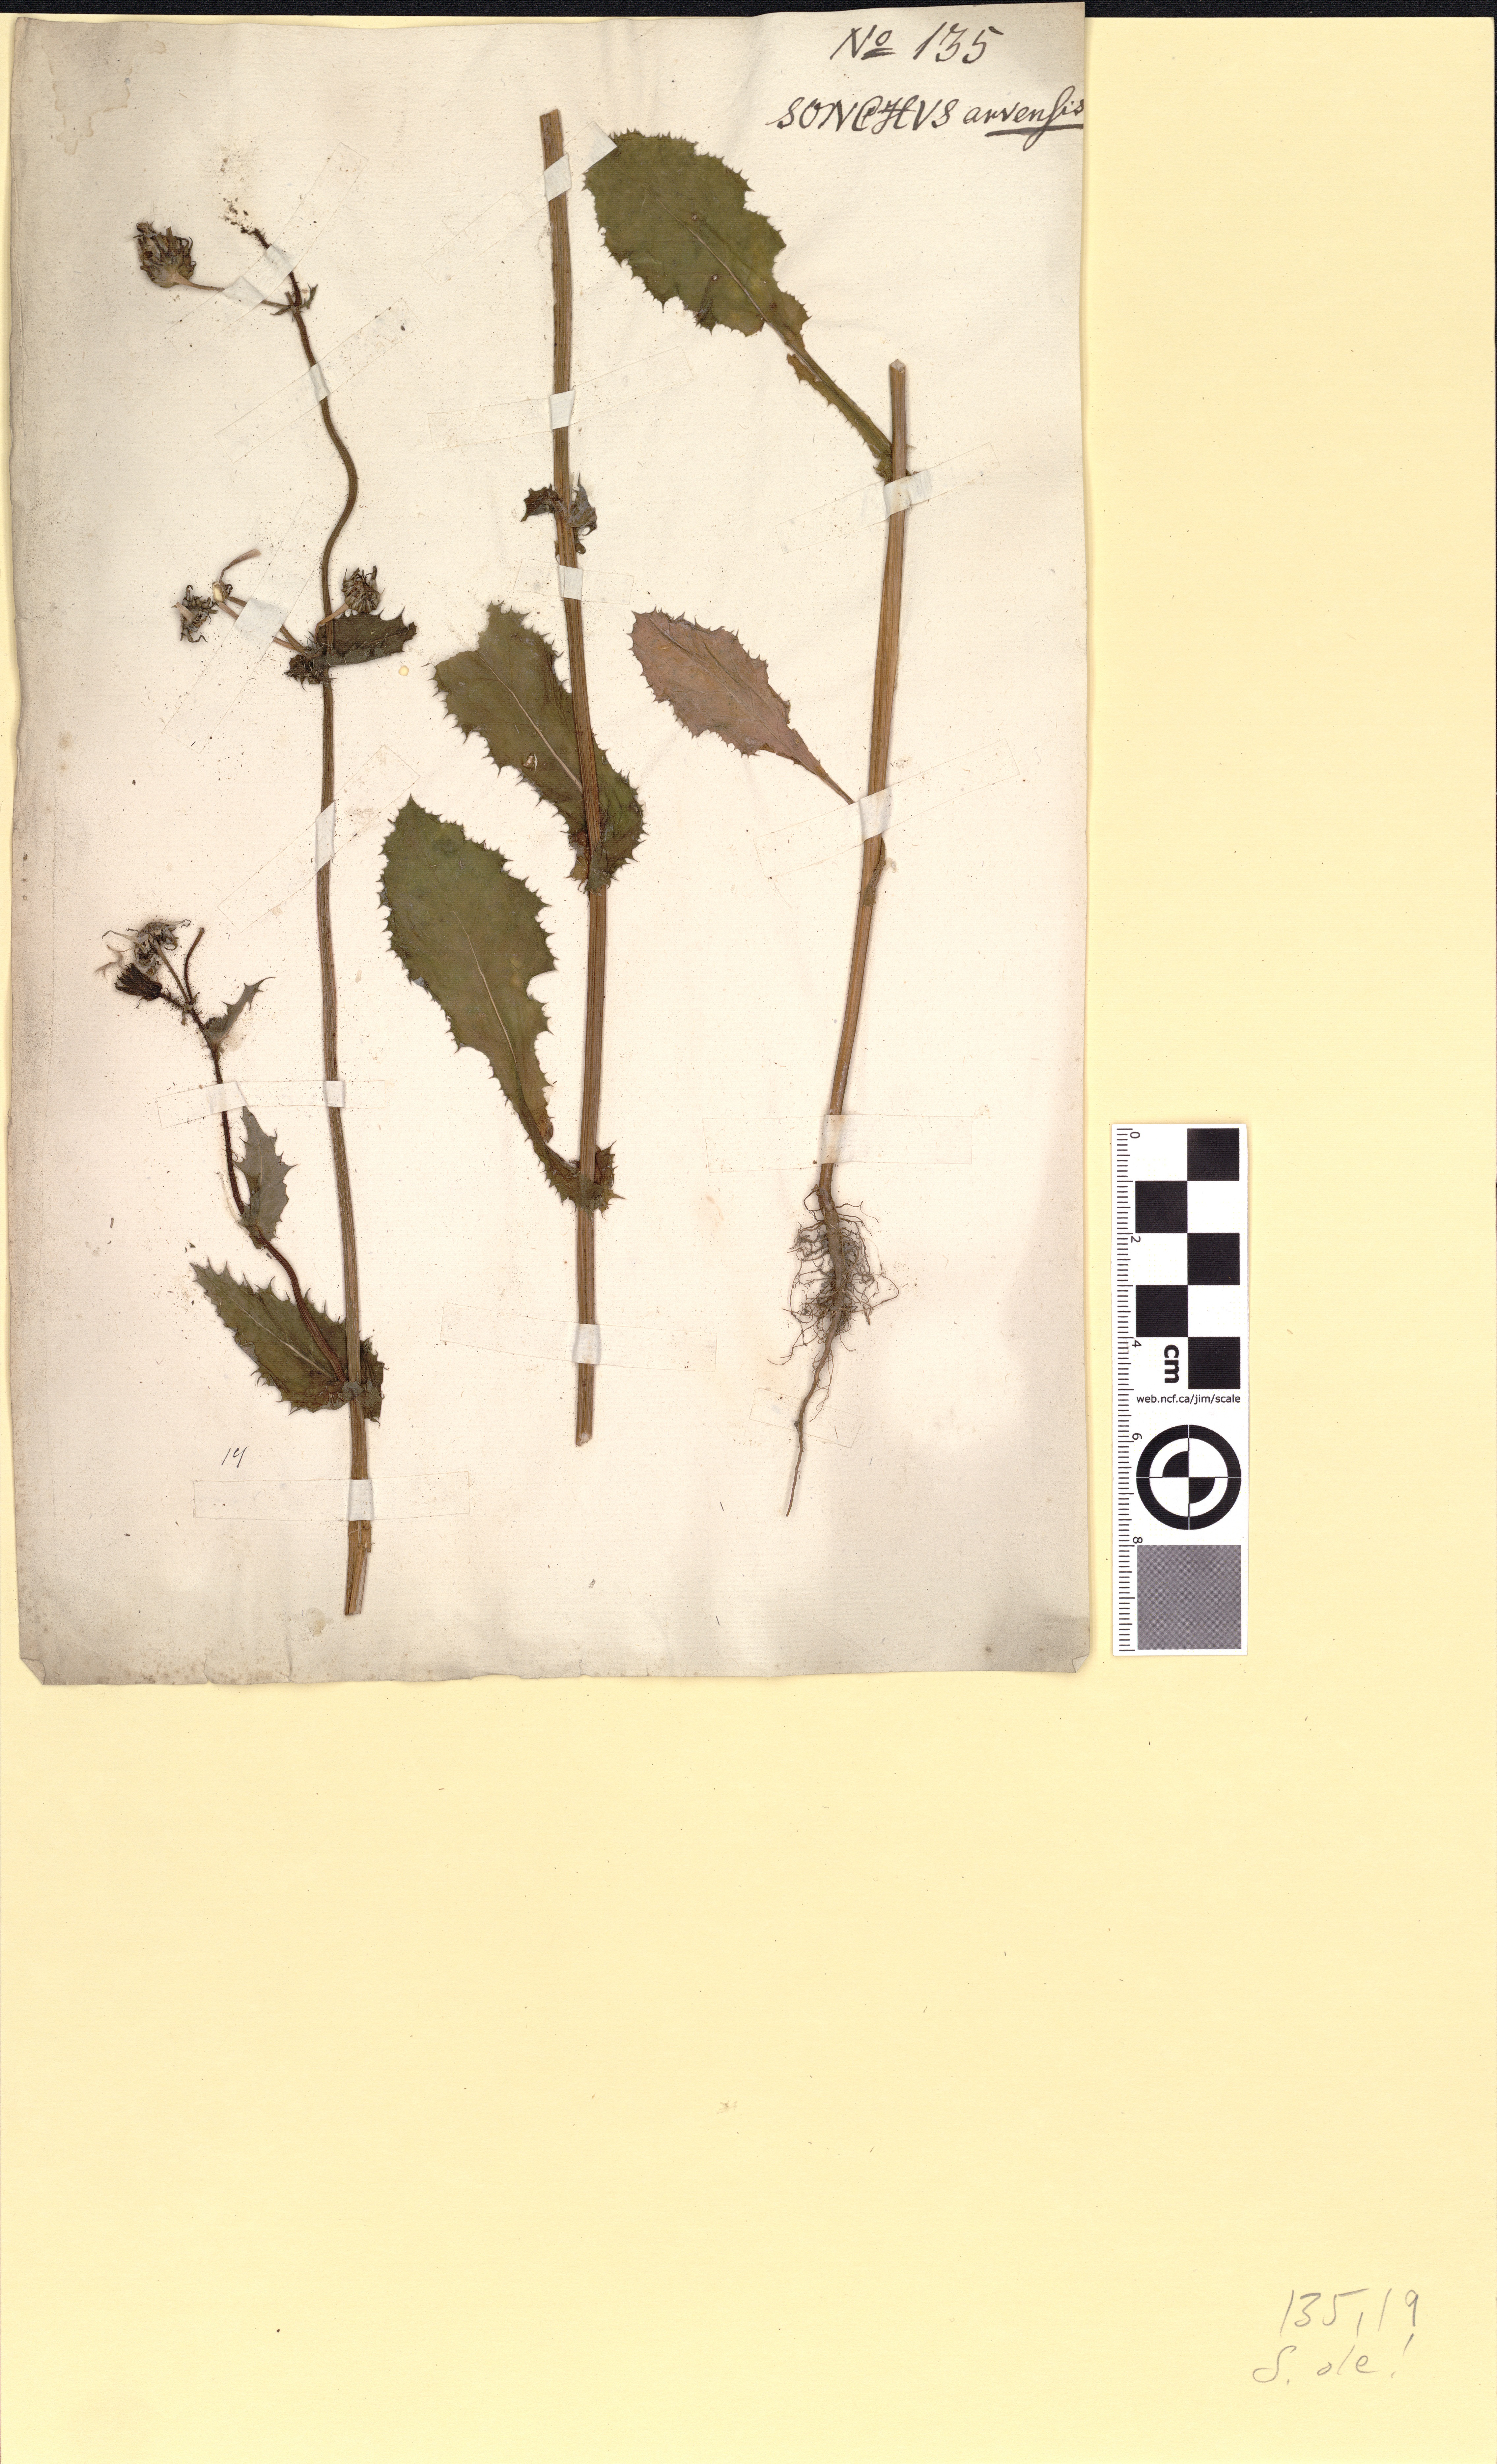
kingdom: Plantae
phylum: Tracheophyta
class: Magnoliopsida
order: Asterales
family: Asteraceae
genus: Sonchus
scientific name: Sonchus asper
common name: Prickly sow-thistle
